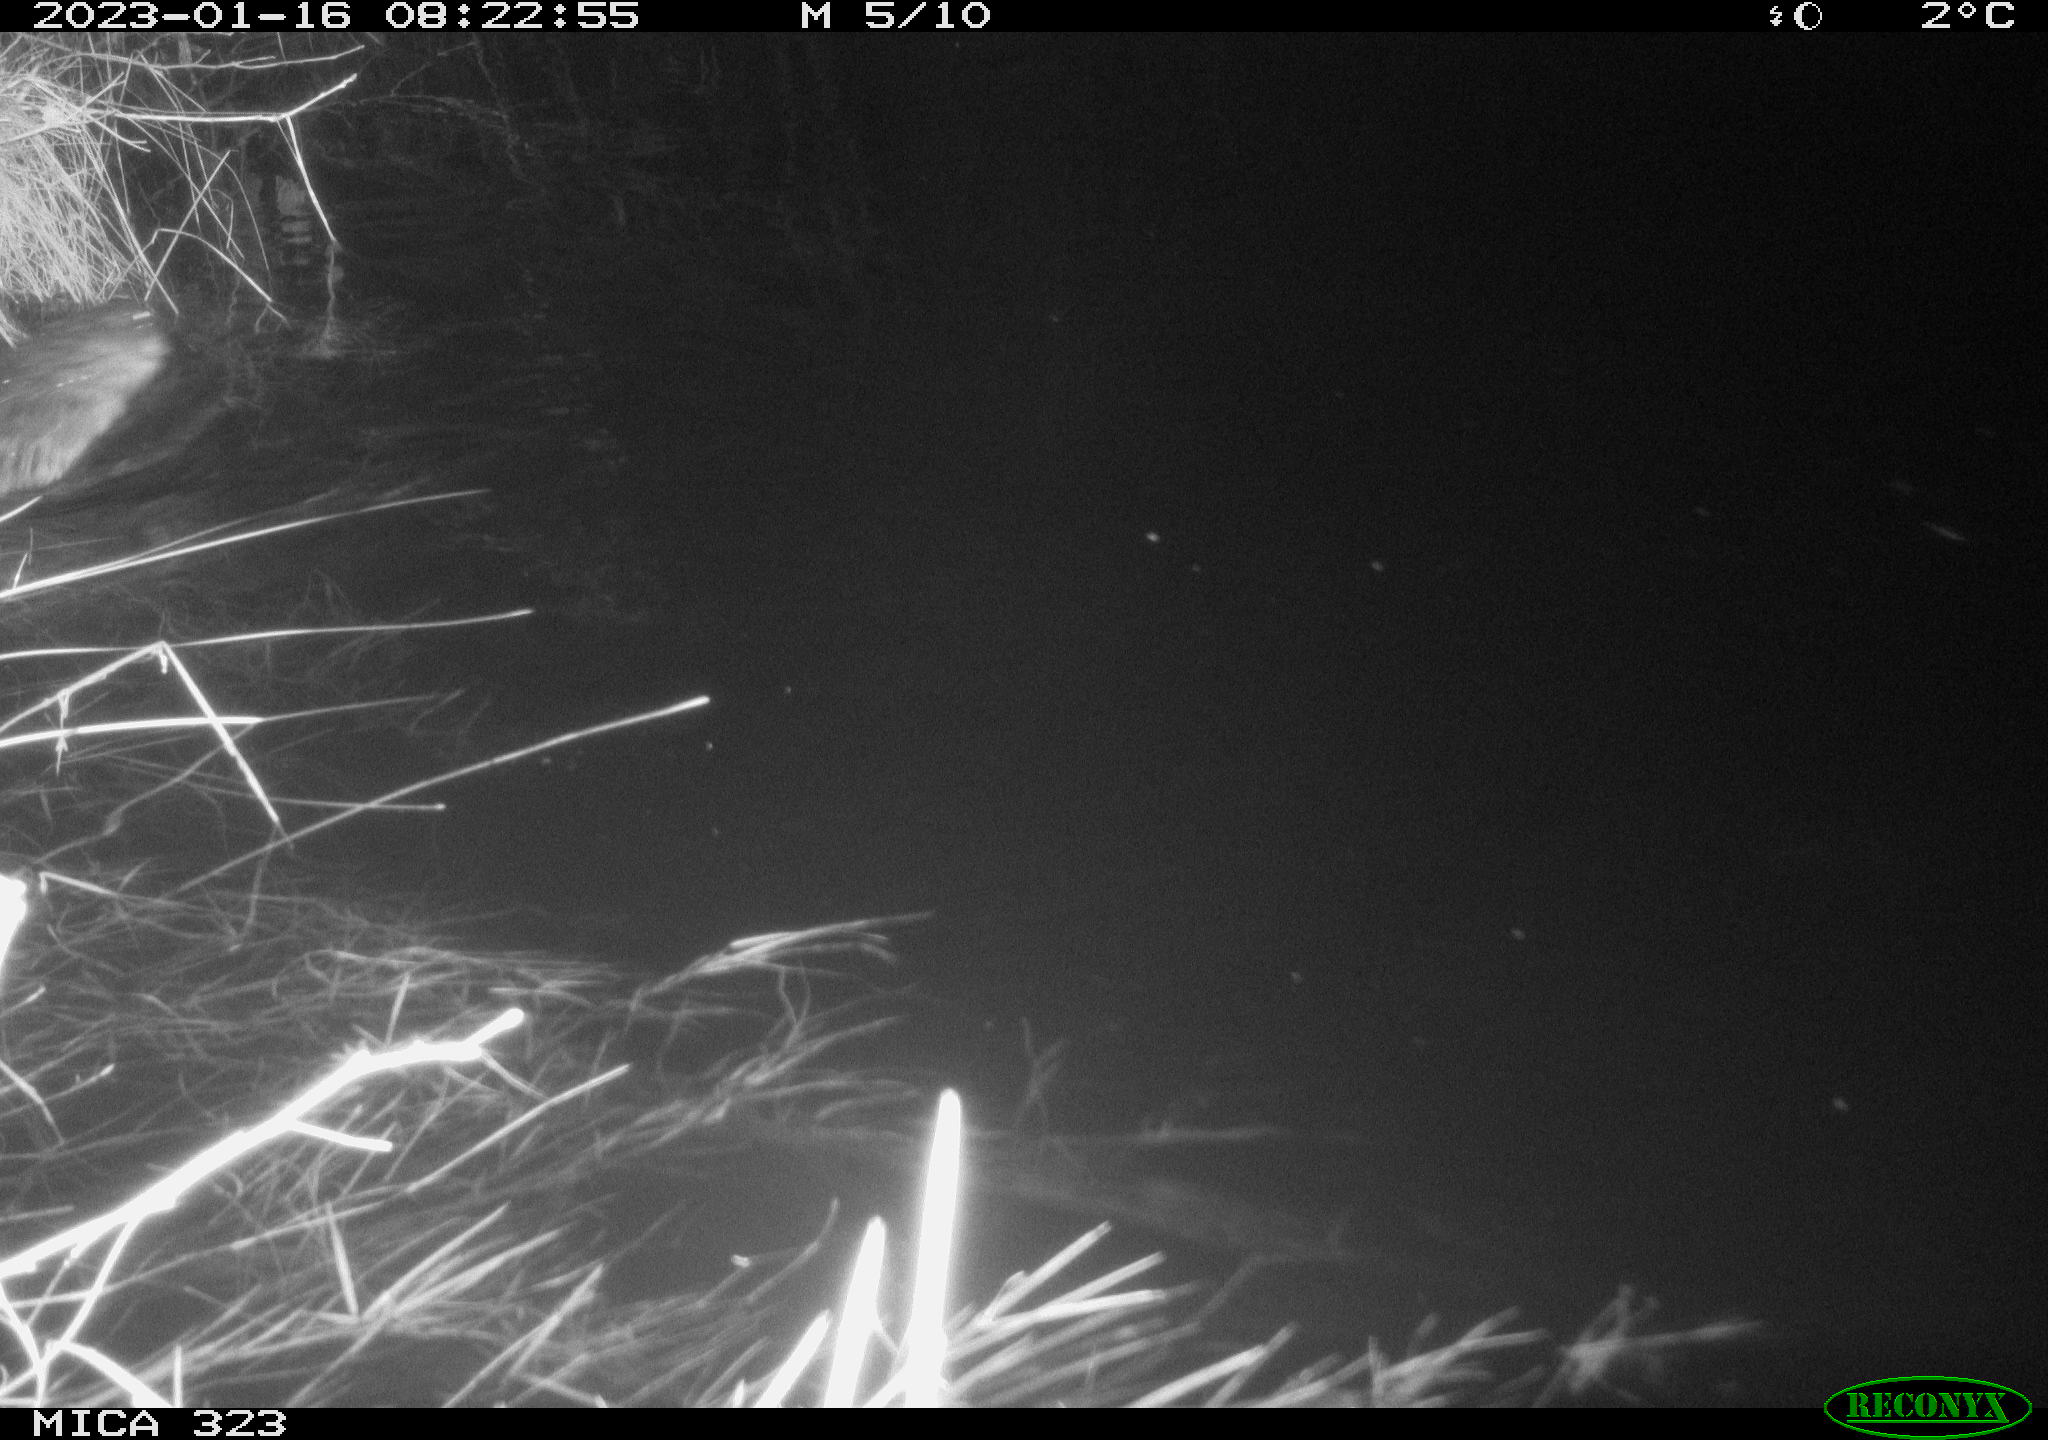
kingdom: Animalia
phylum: Chordata
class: Mammalia
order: Rodentia
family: Cricetidae
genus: Ondatra
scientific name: Ondatra zibethicus
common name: Muskrat
